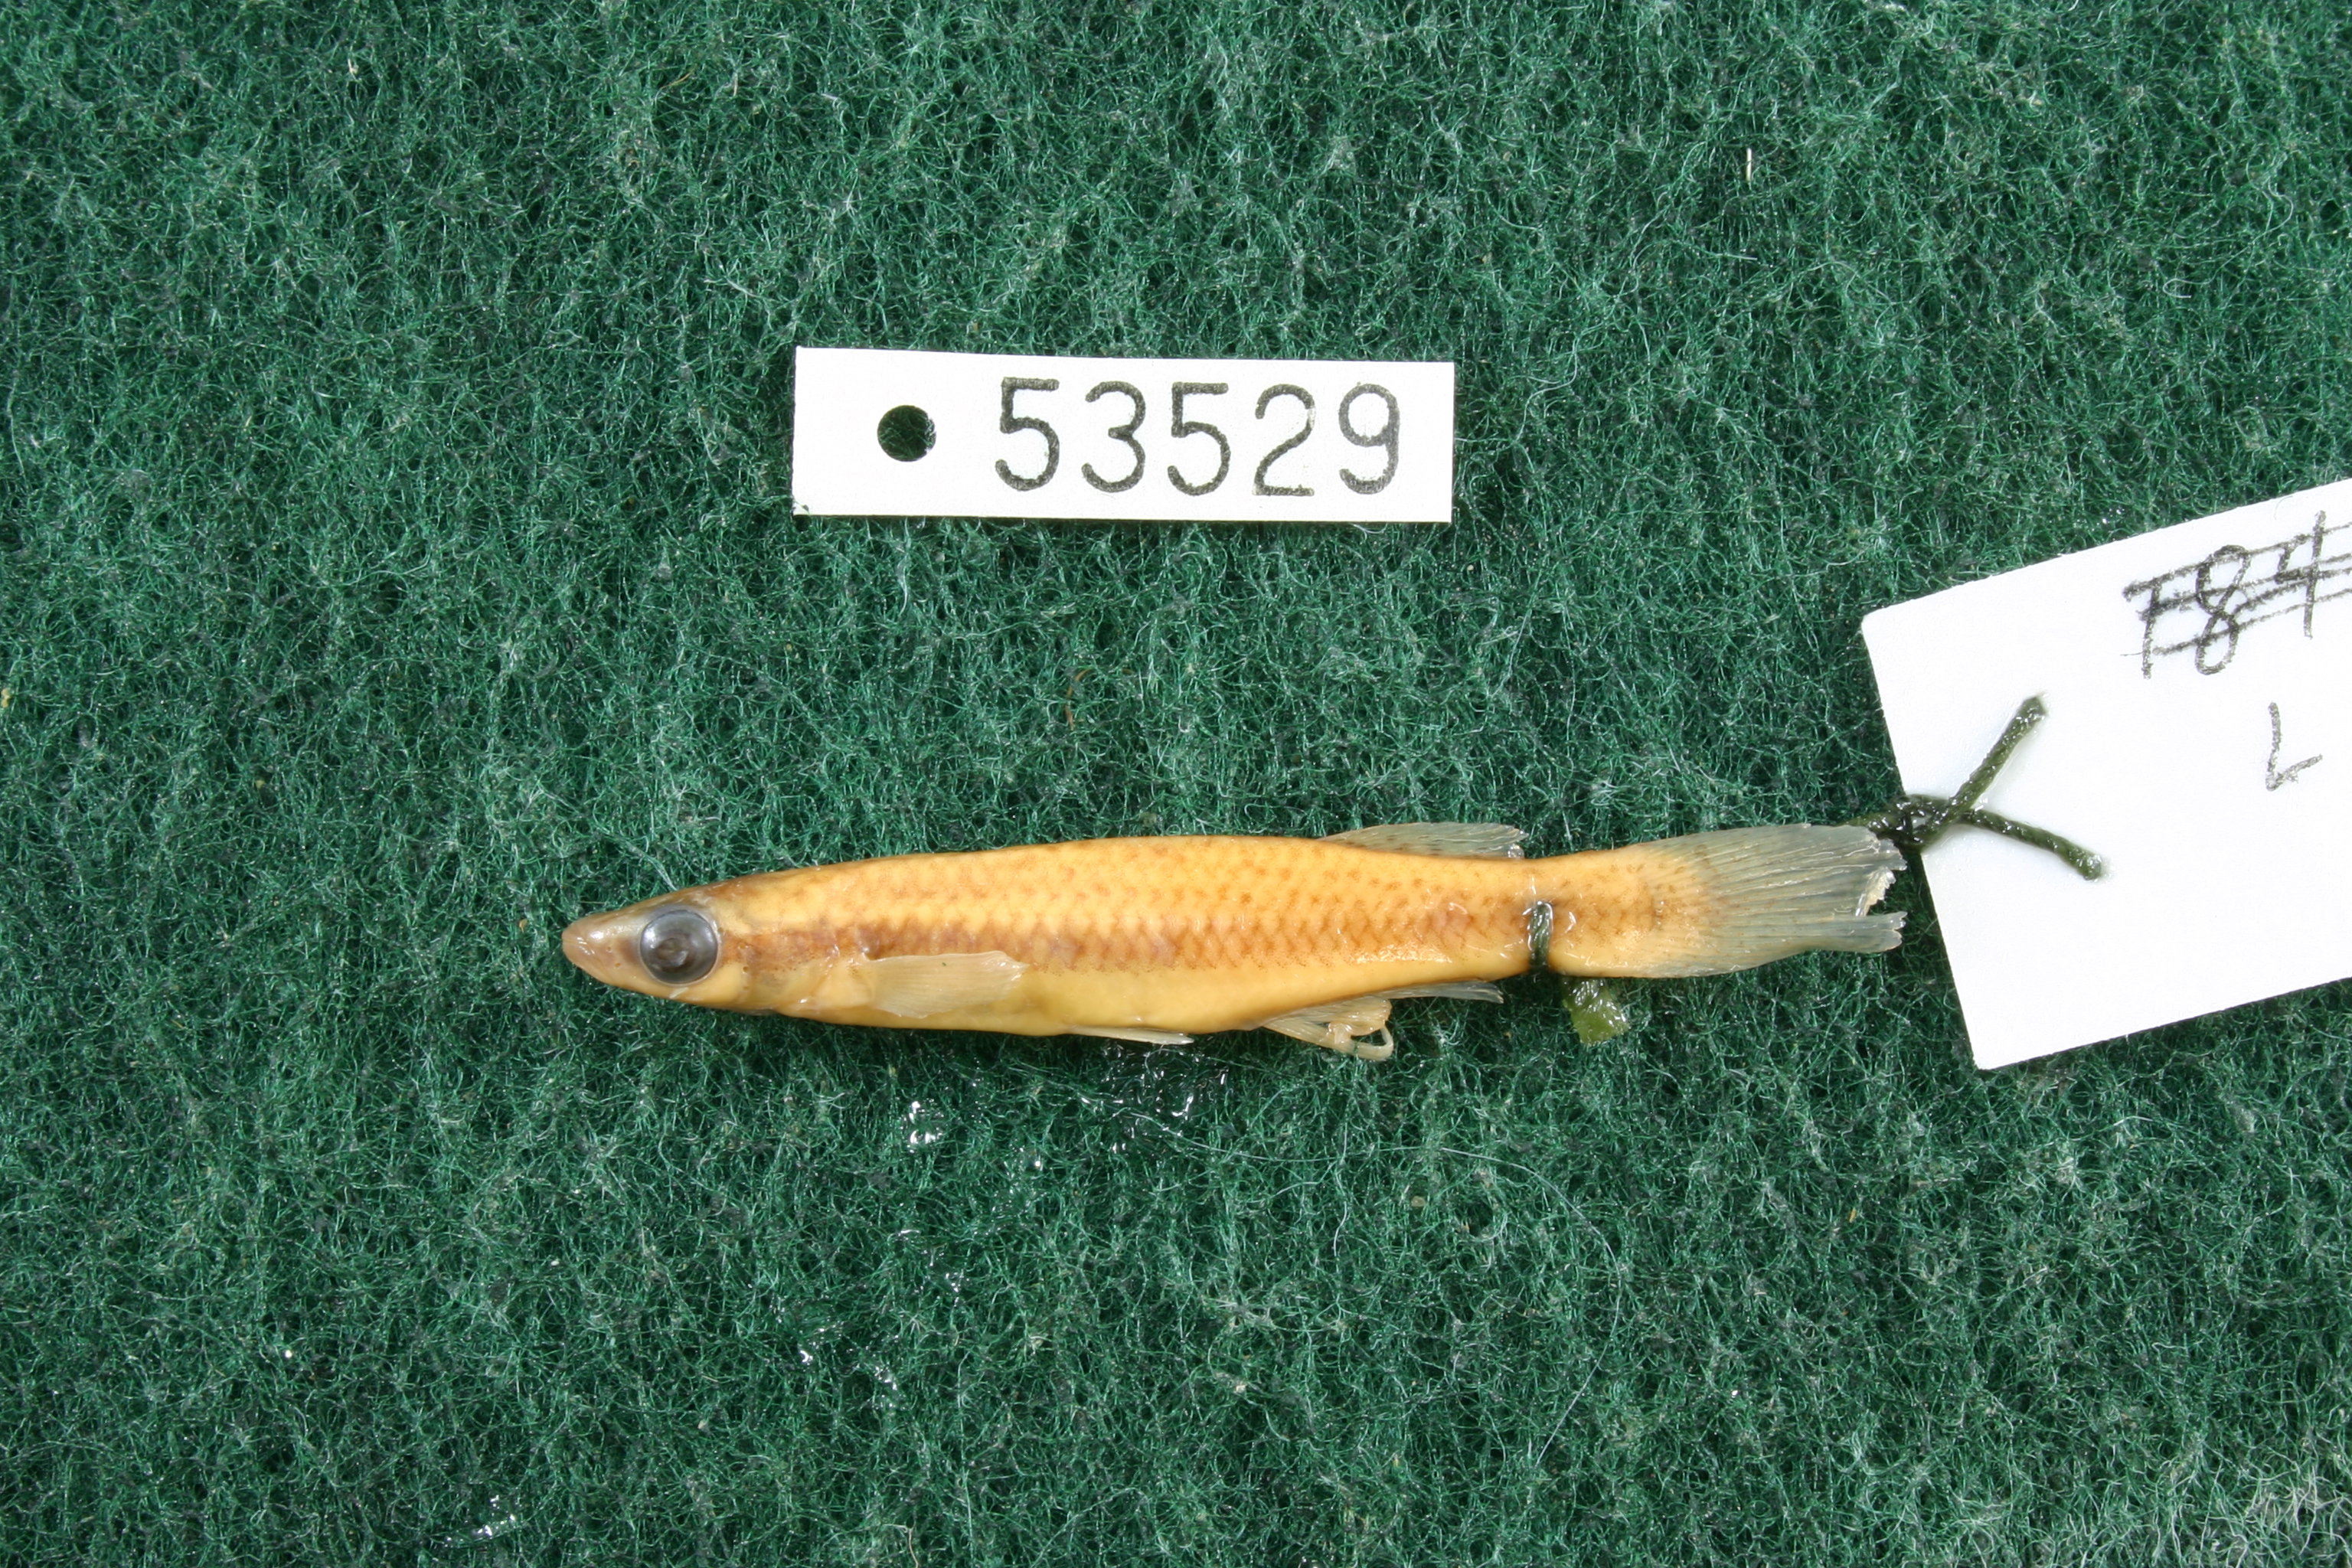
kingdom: Animalia
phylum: Chordata
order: Cyprinodontiformes
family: Fundulidae
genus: Fundulus
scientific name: Fundulus notatus
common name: Blackstripe topminnow
